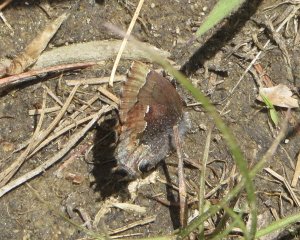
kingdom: Animalia
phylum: Arthropoda
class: Insecta
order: Lepidoptera
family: Lycaenidae
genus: Incisalia
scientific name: Incisalia henrici
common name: Henry's Elfin
